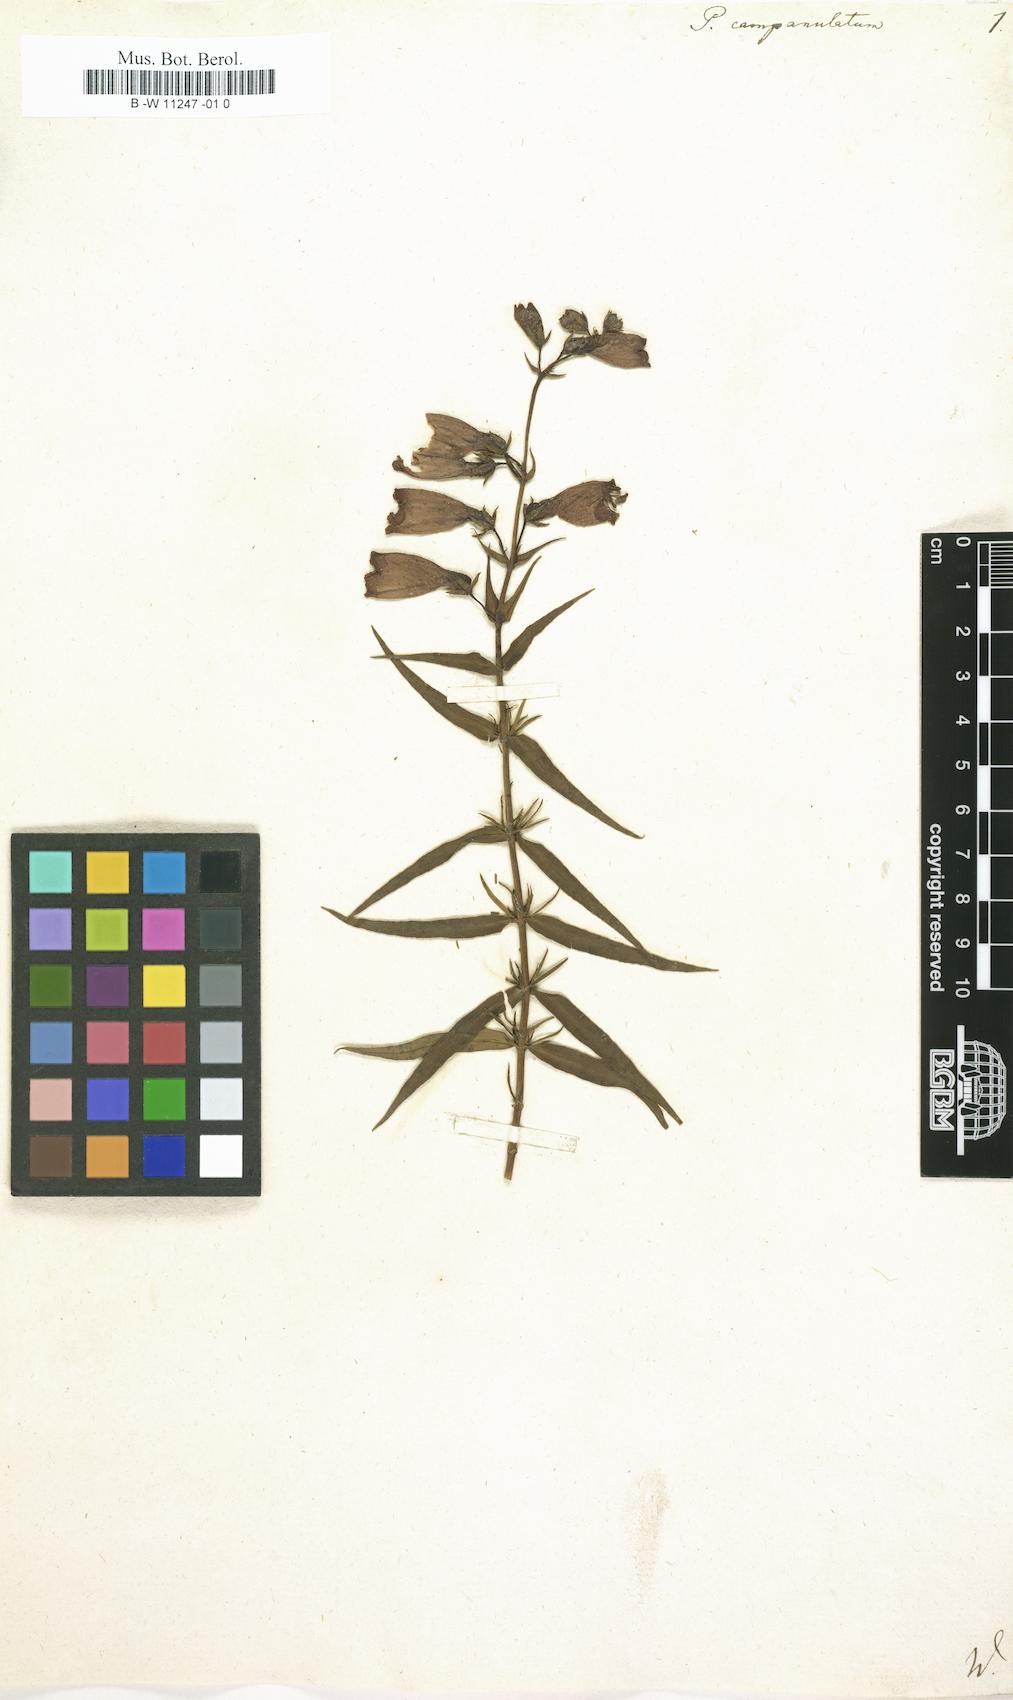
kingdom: Plantae
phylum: Tracheophyta
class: Magnoliopsida
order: Lamiales
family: Plantaginaceae
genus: Penstemon
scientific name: Penstemon campanulatus
